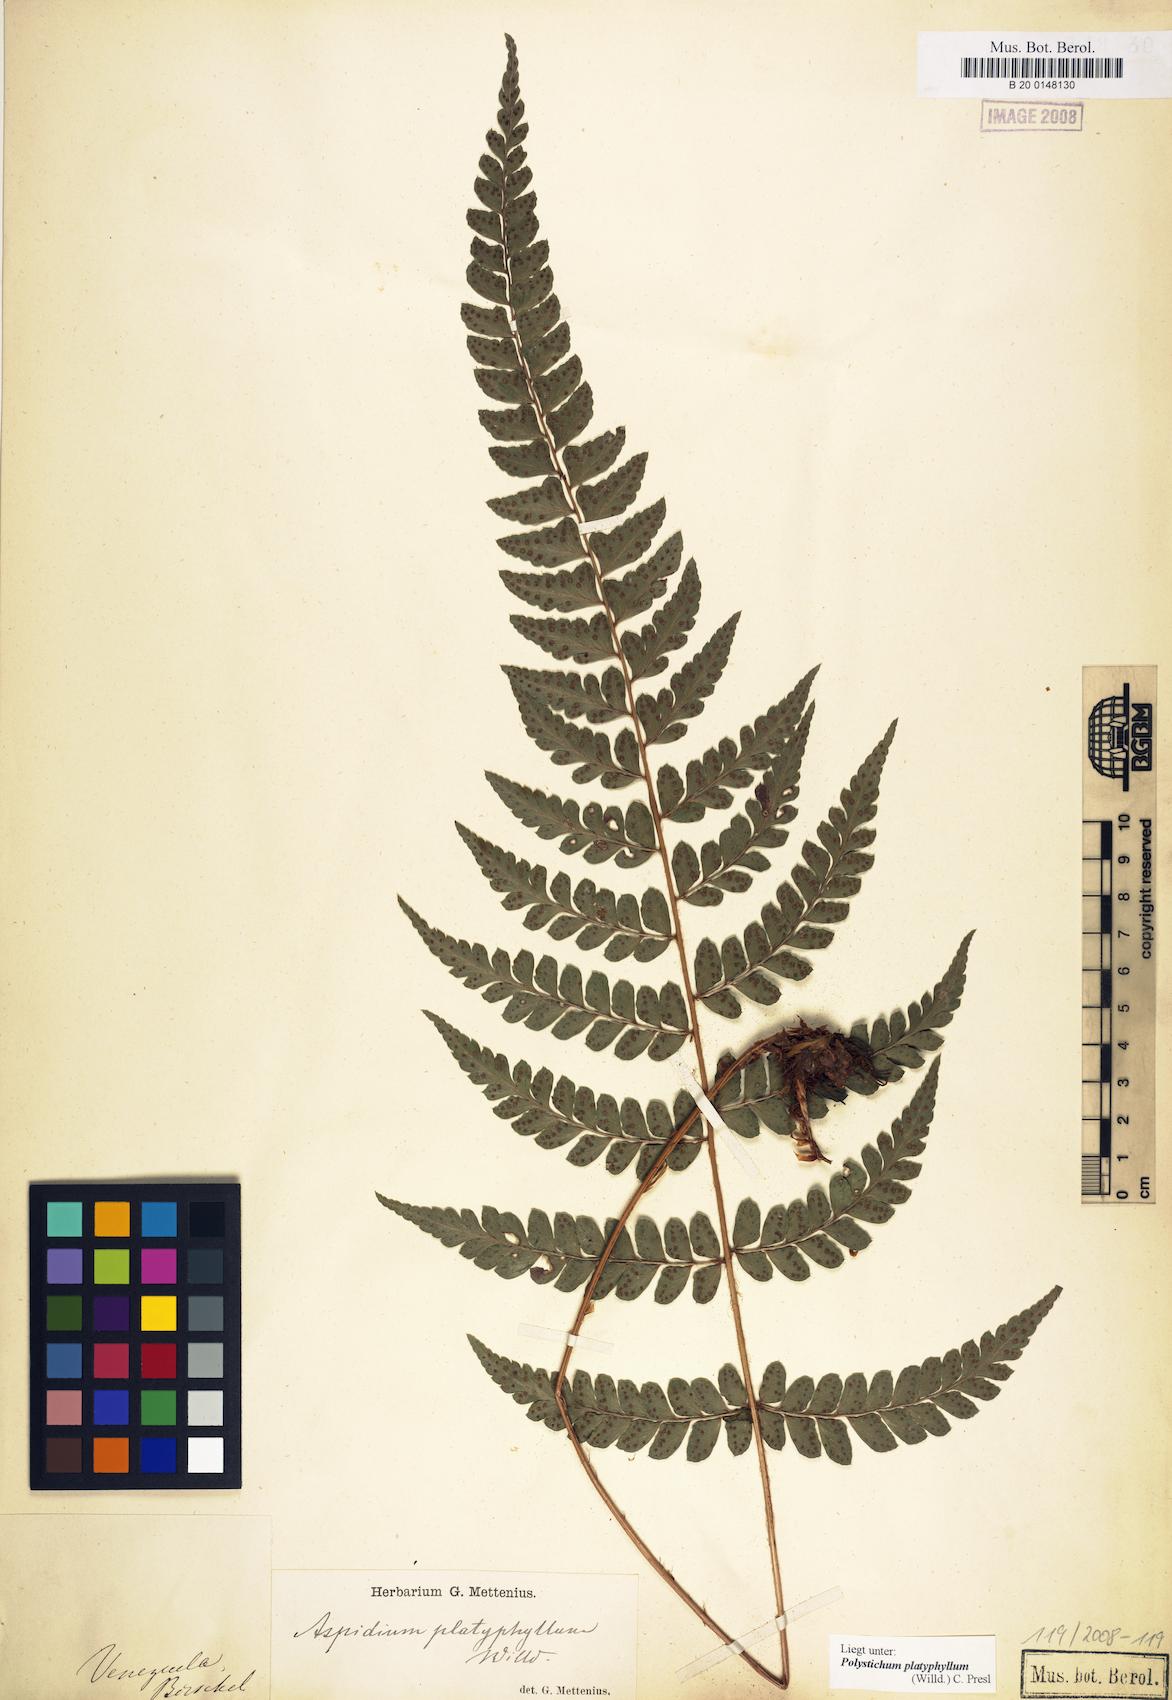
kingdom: Plantae
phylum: Tracheophyta
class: Polypodiopsida
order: Polypodiales
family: Dryopteridaceae
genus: Polystichum
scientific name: Polystichum platyphyllum
